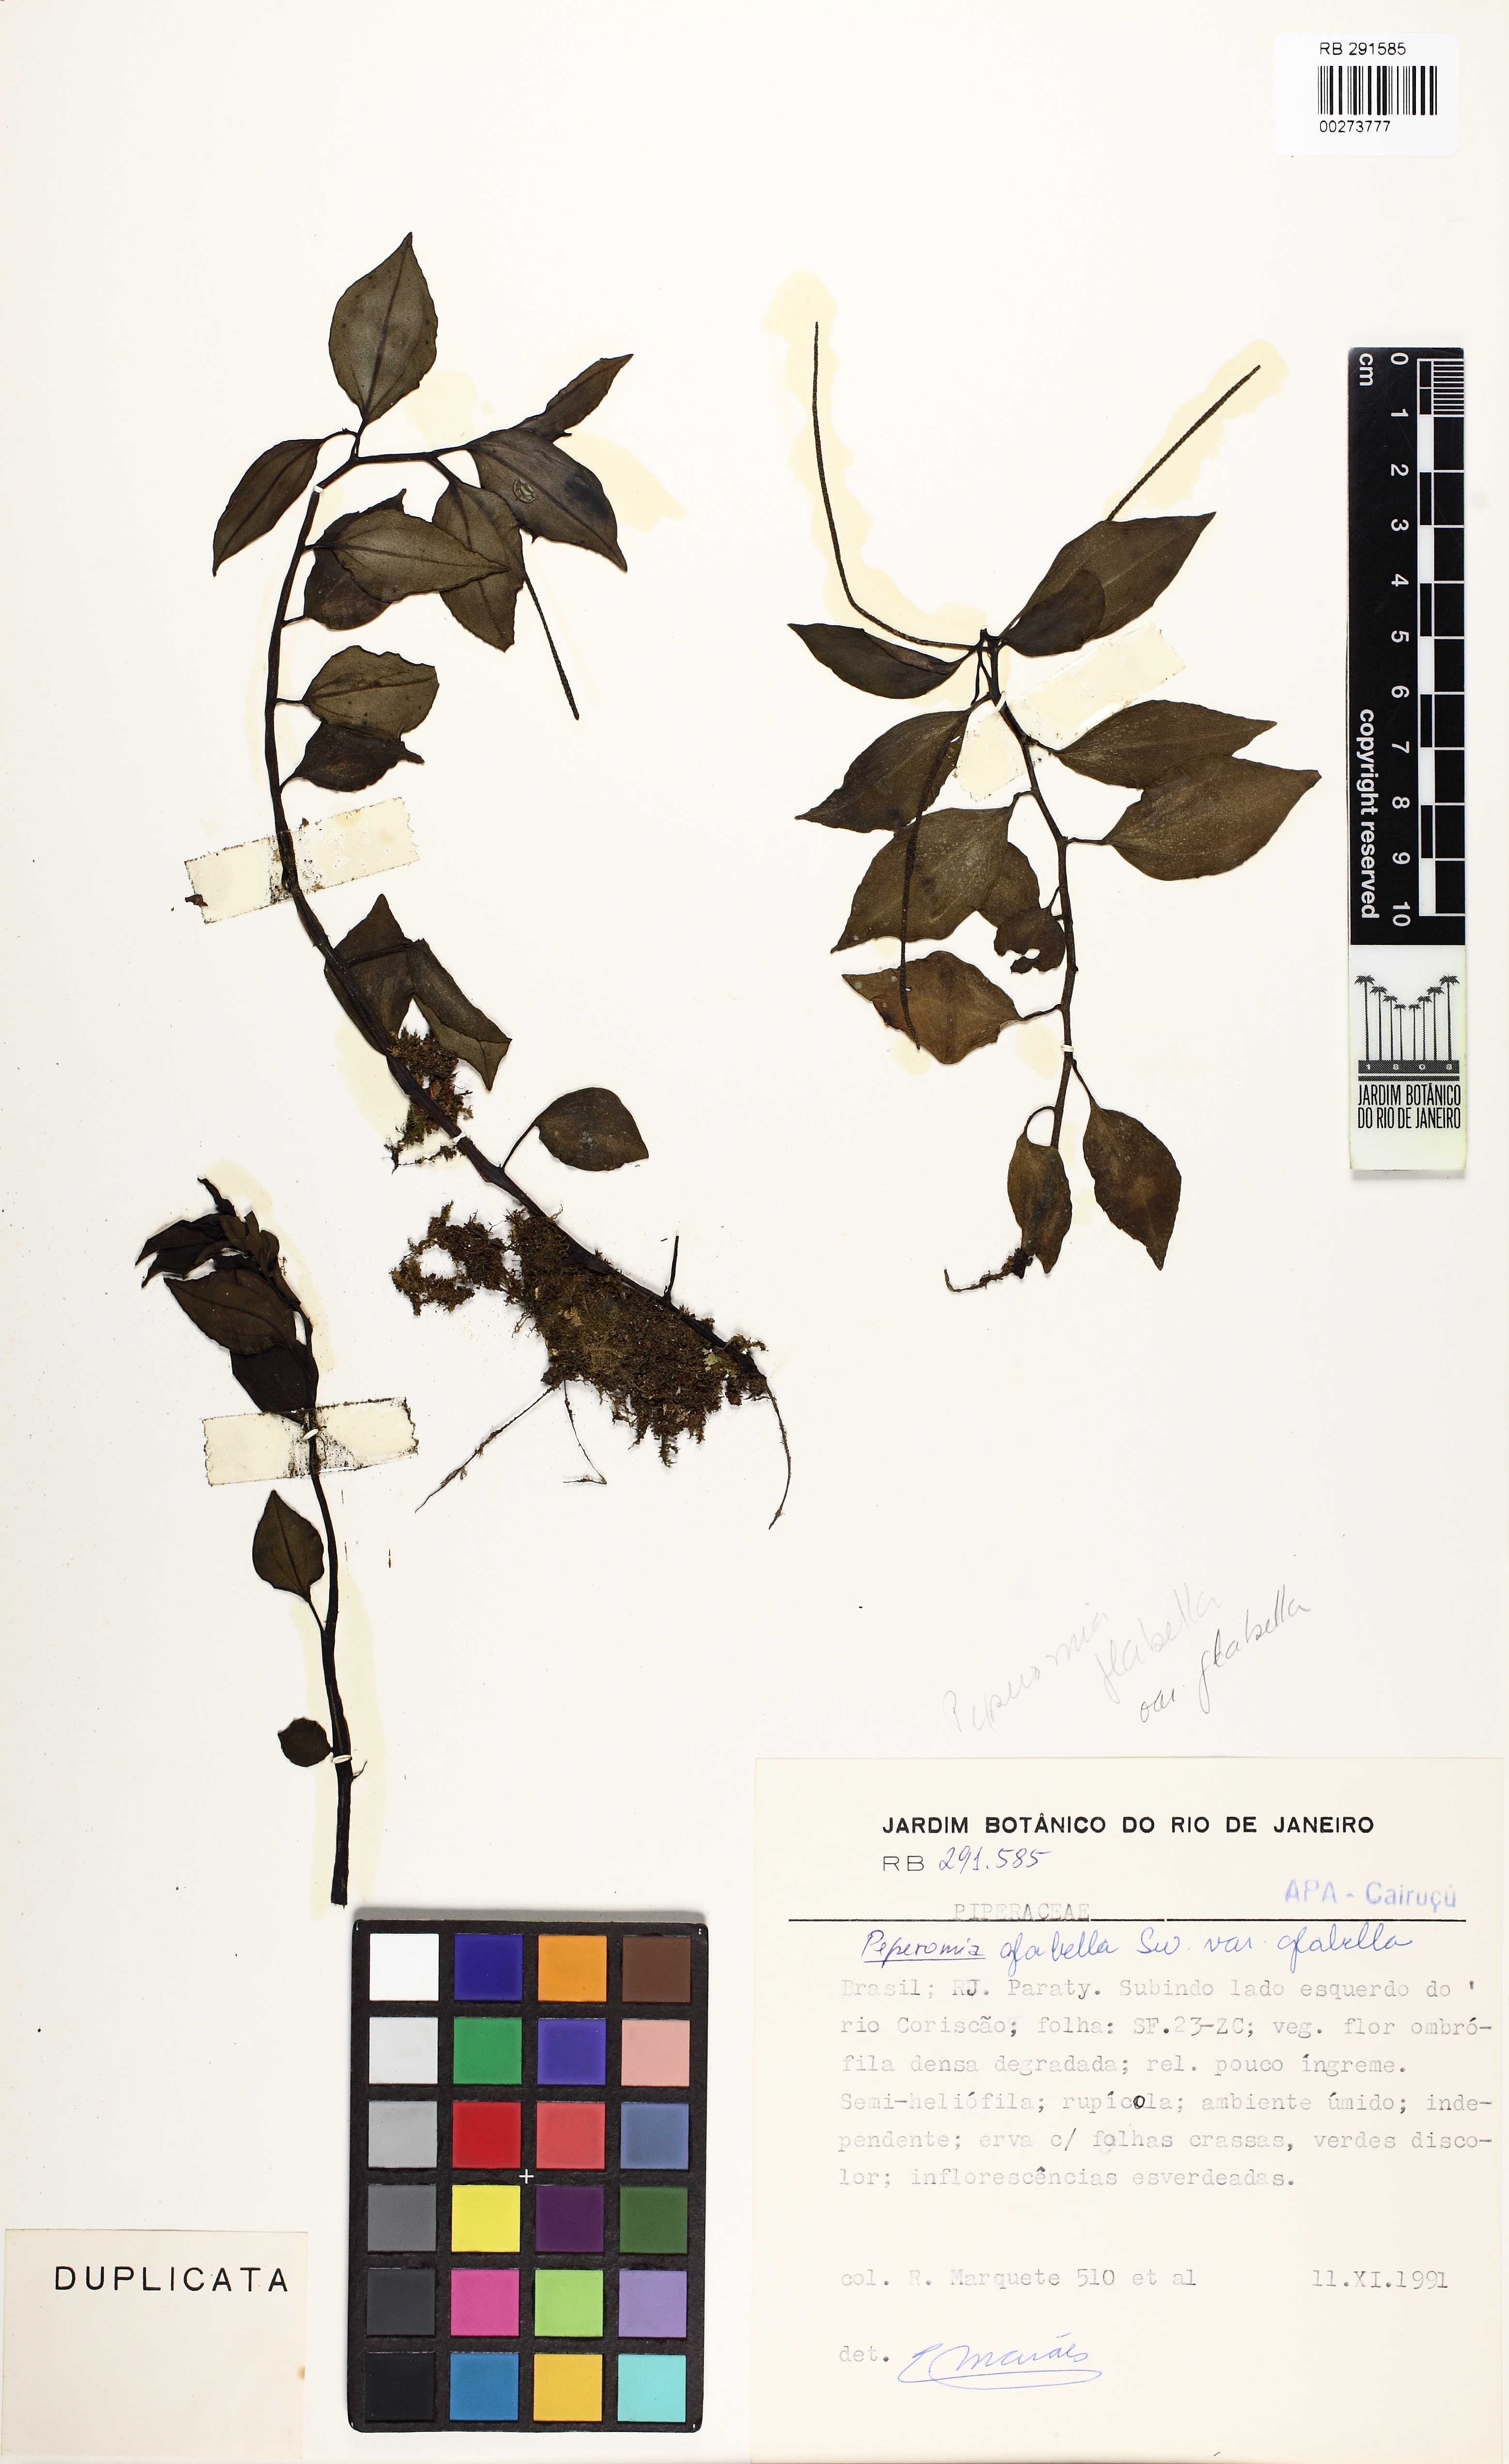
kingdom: Plantae
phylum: Tracheophyta
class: Magnoliopsida
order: Piperales
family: Piperaceae
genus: Peperomia
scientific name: Peperomia glabella
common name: Cypress peperomia
